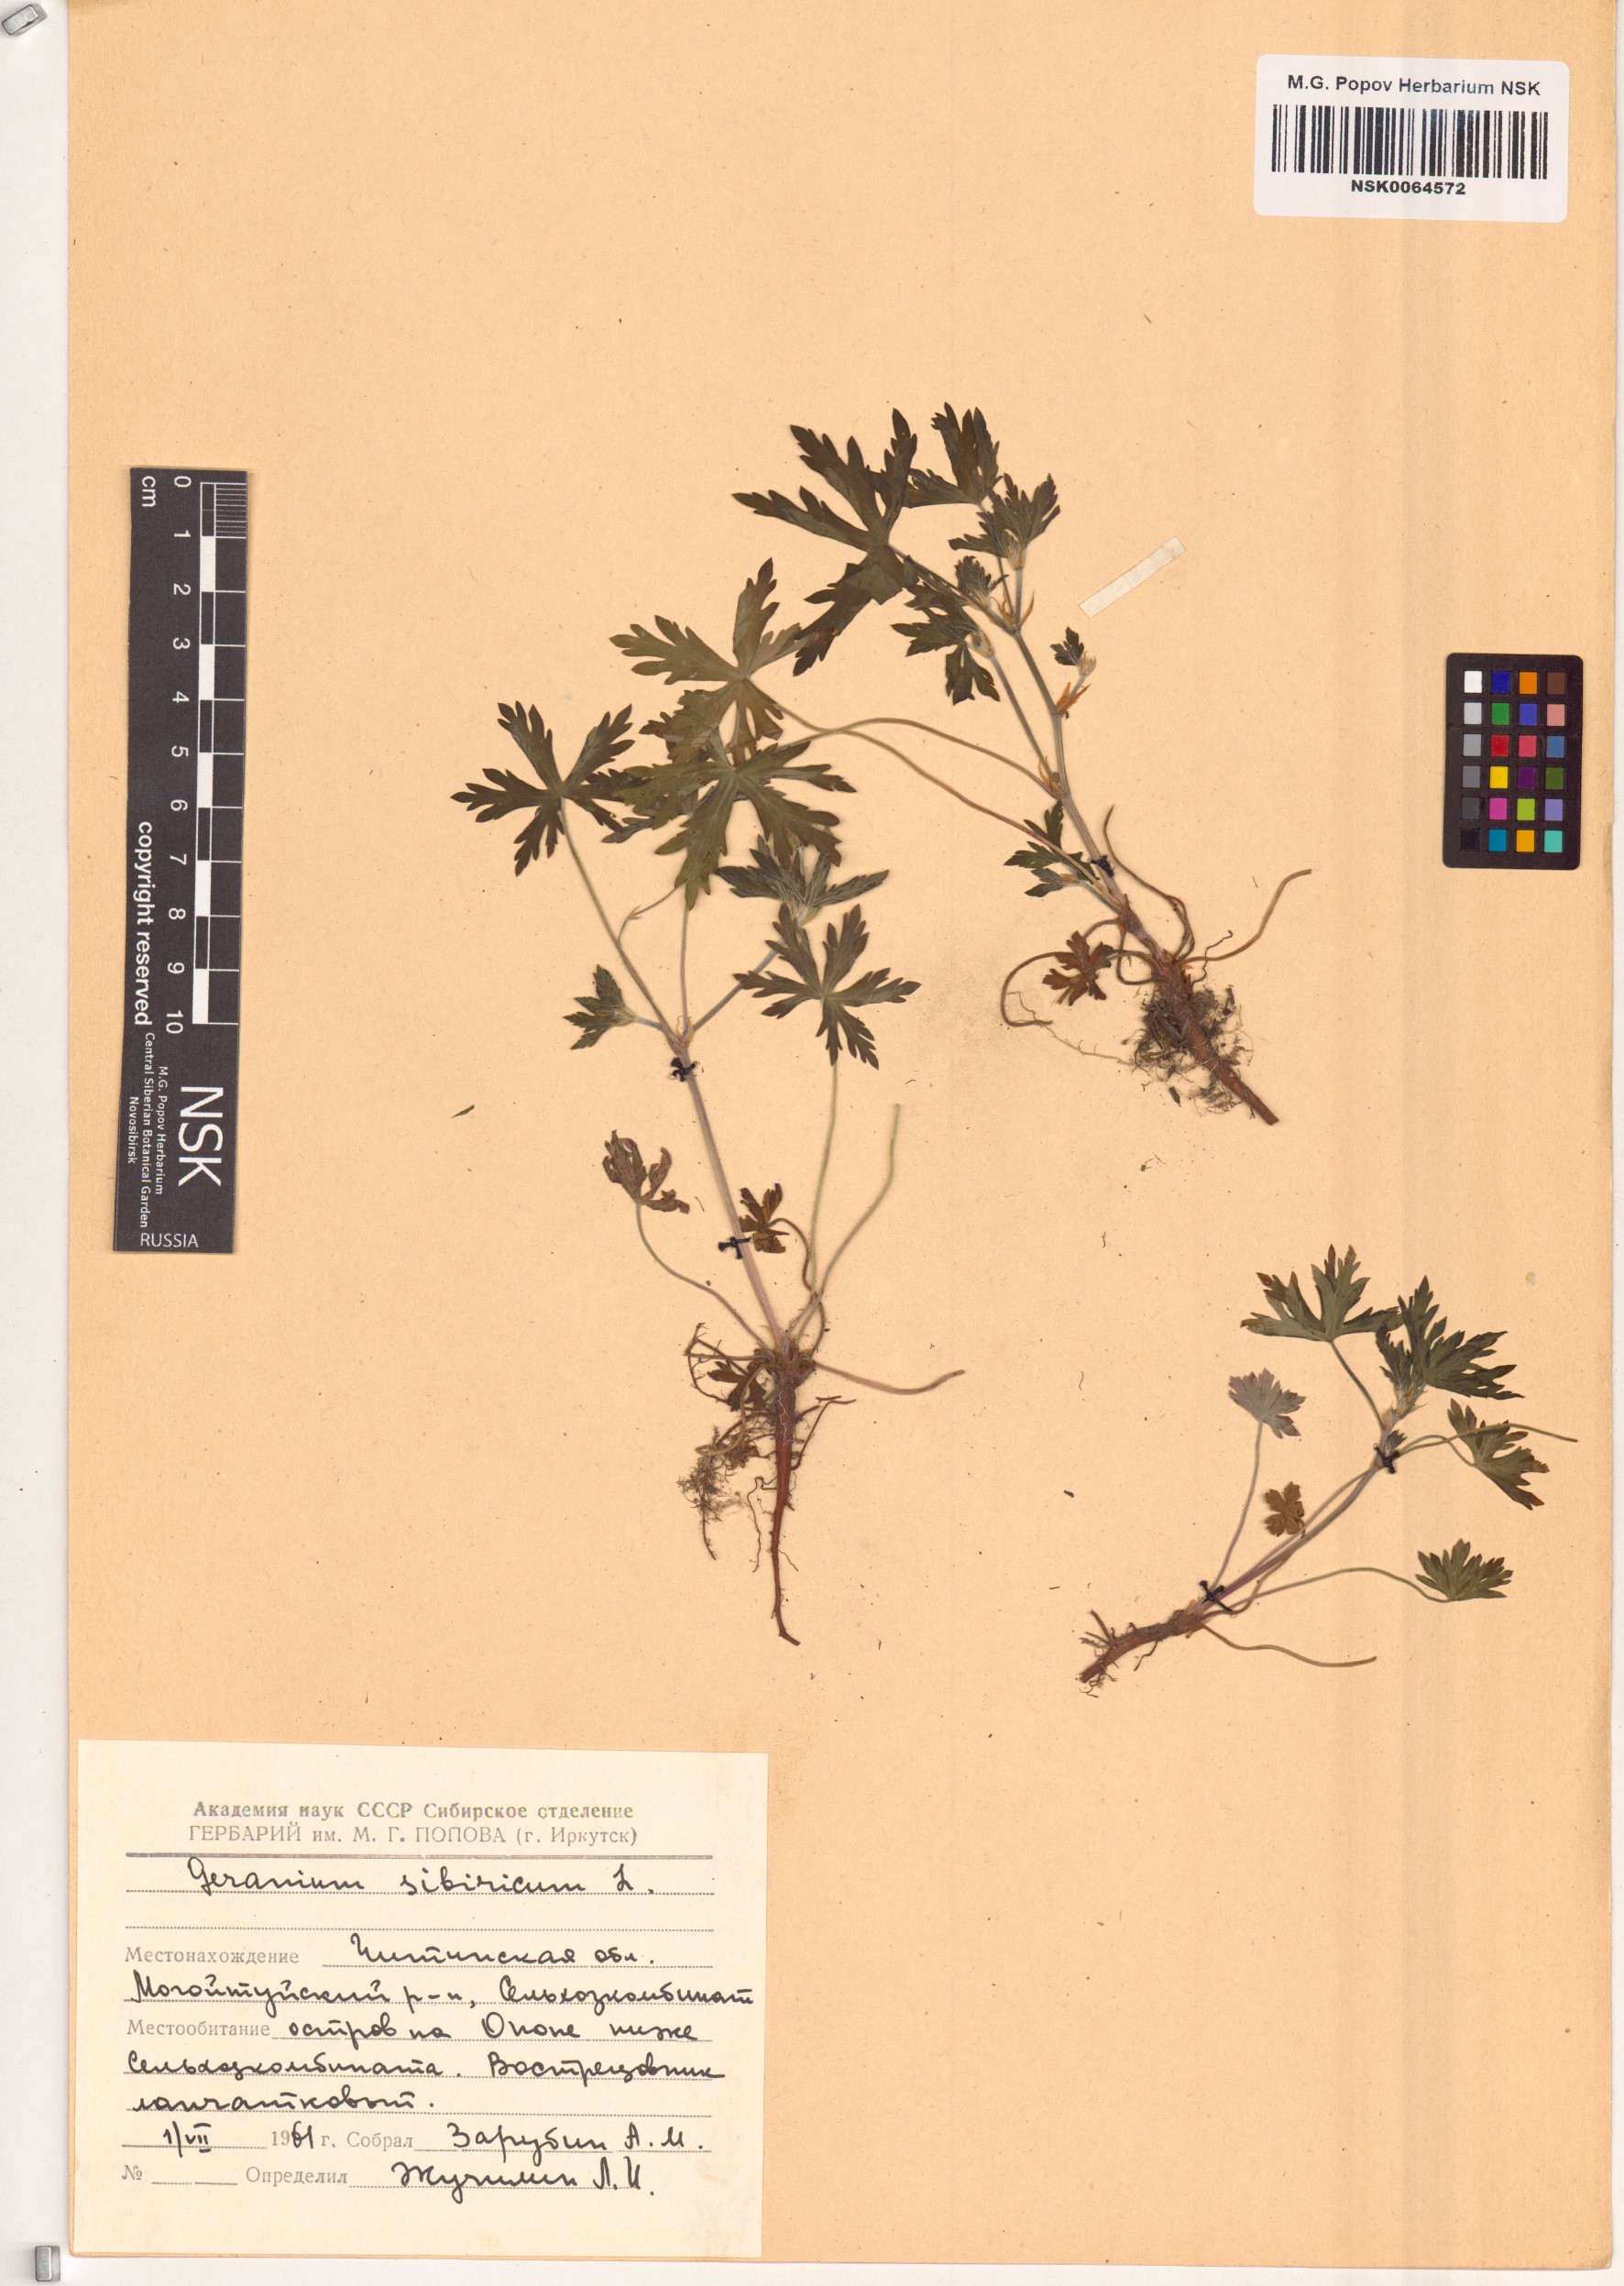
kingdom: Plantae
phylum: Tracheophyta
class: Magnoliopsida
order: Geraniales
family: Geraniaceae
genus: Geranium
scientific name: Geranium sibiricum
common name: Siberian crane's-bill
